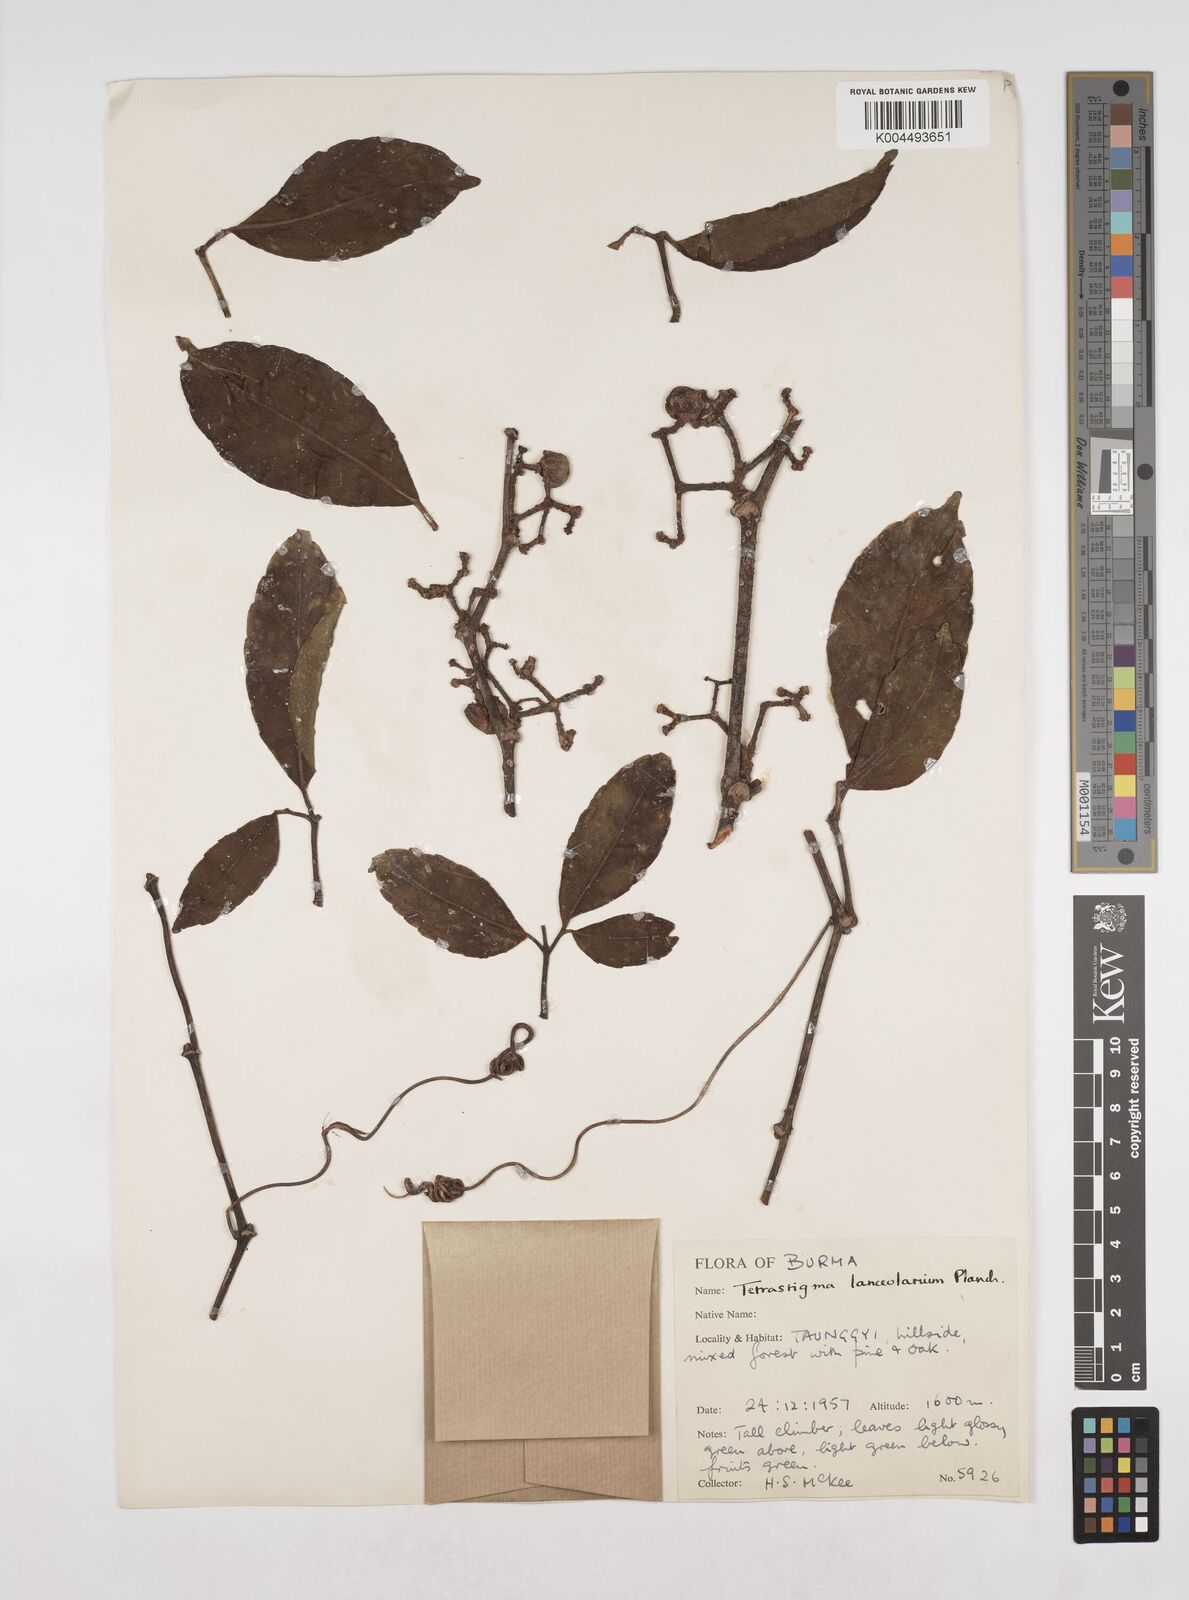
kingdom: Plantae
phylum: Tracheophyta
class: Magnoliopsida
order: Vitales
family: Vitaceae
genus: Tetrastigma
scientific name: Tetrastigma leucostaphylum
